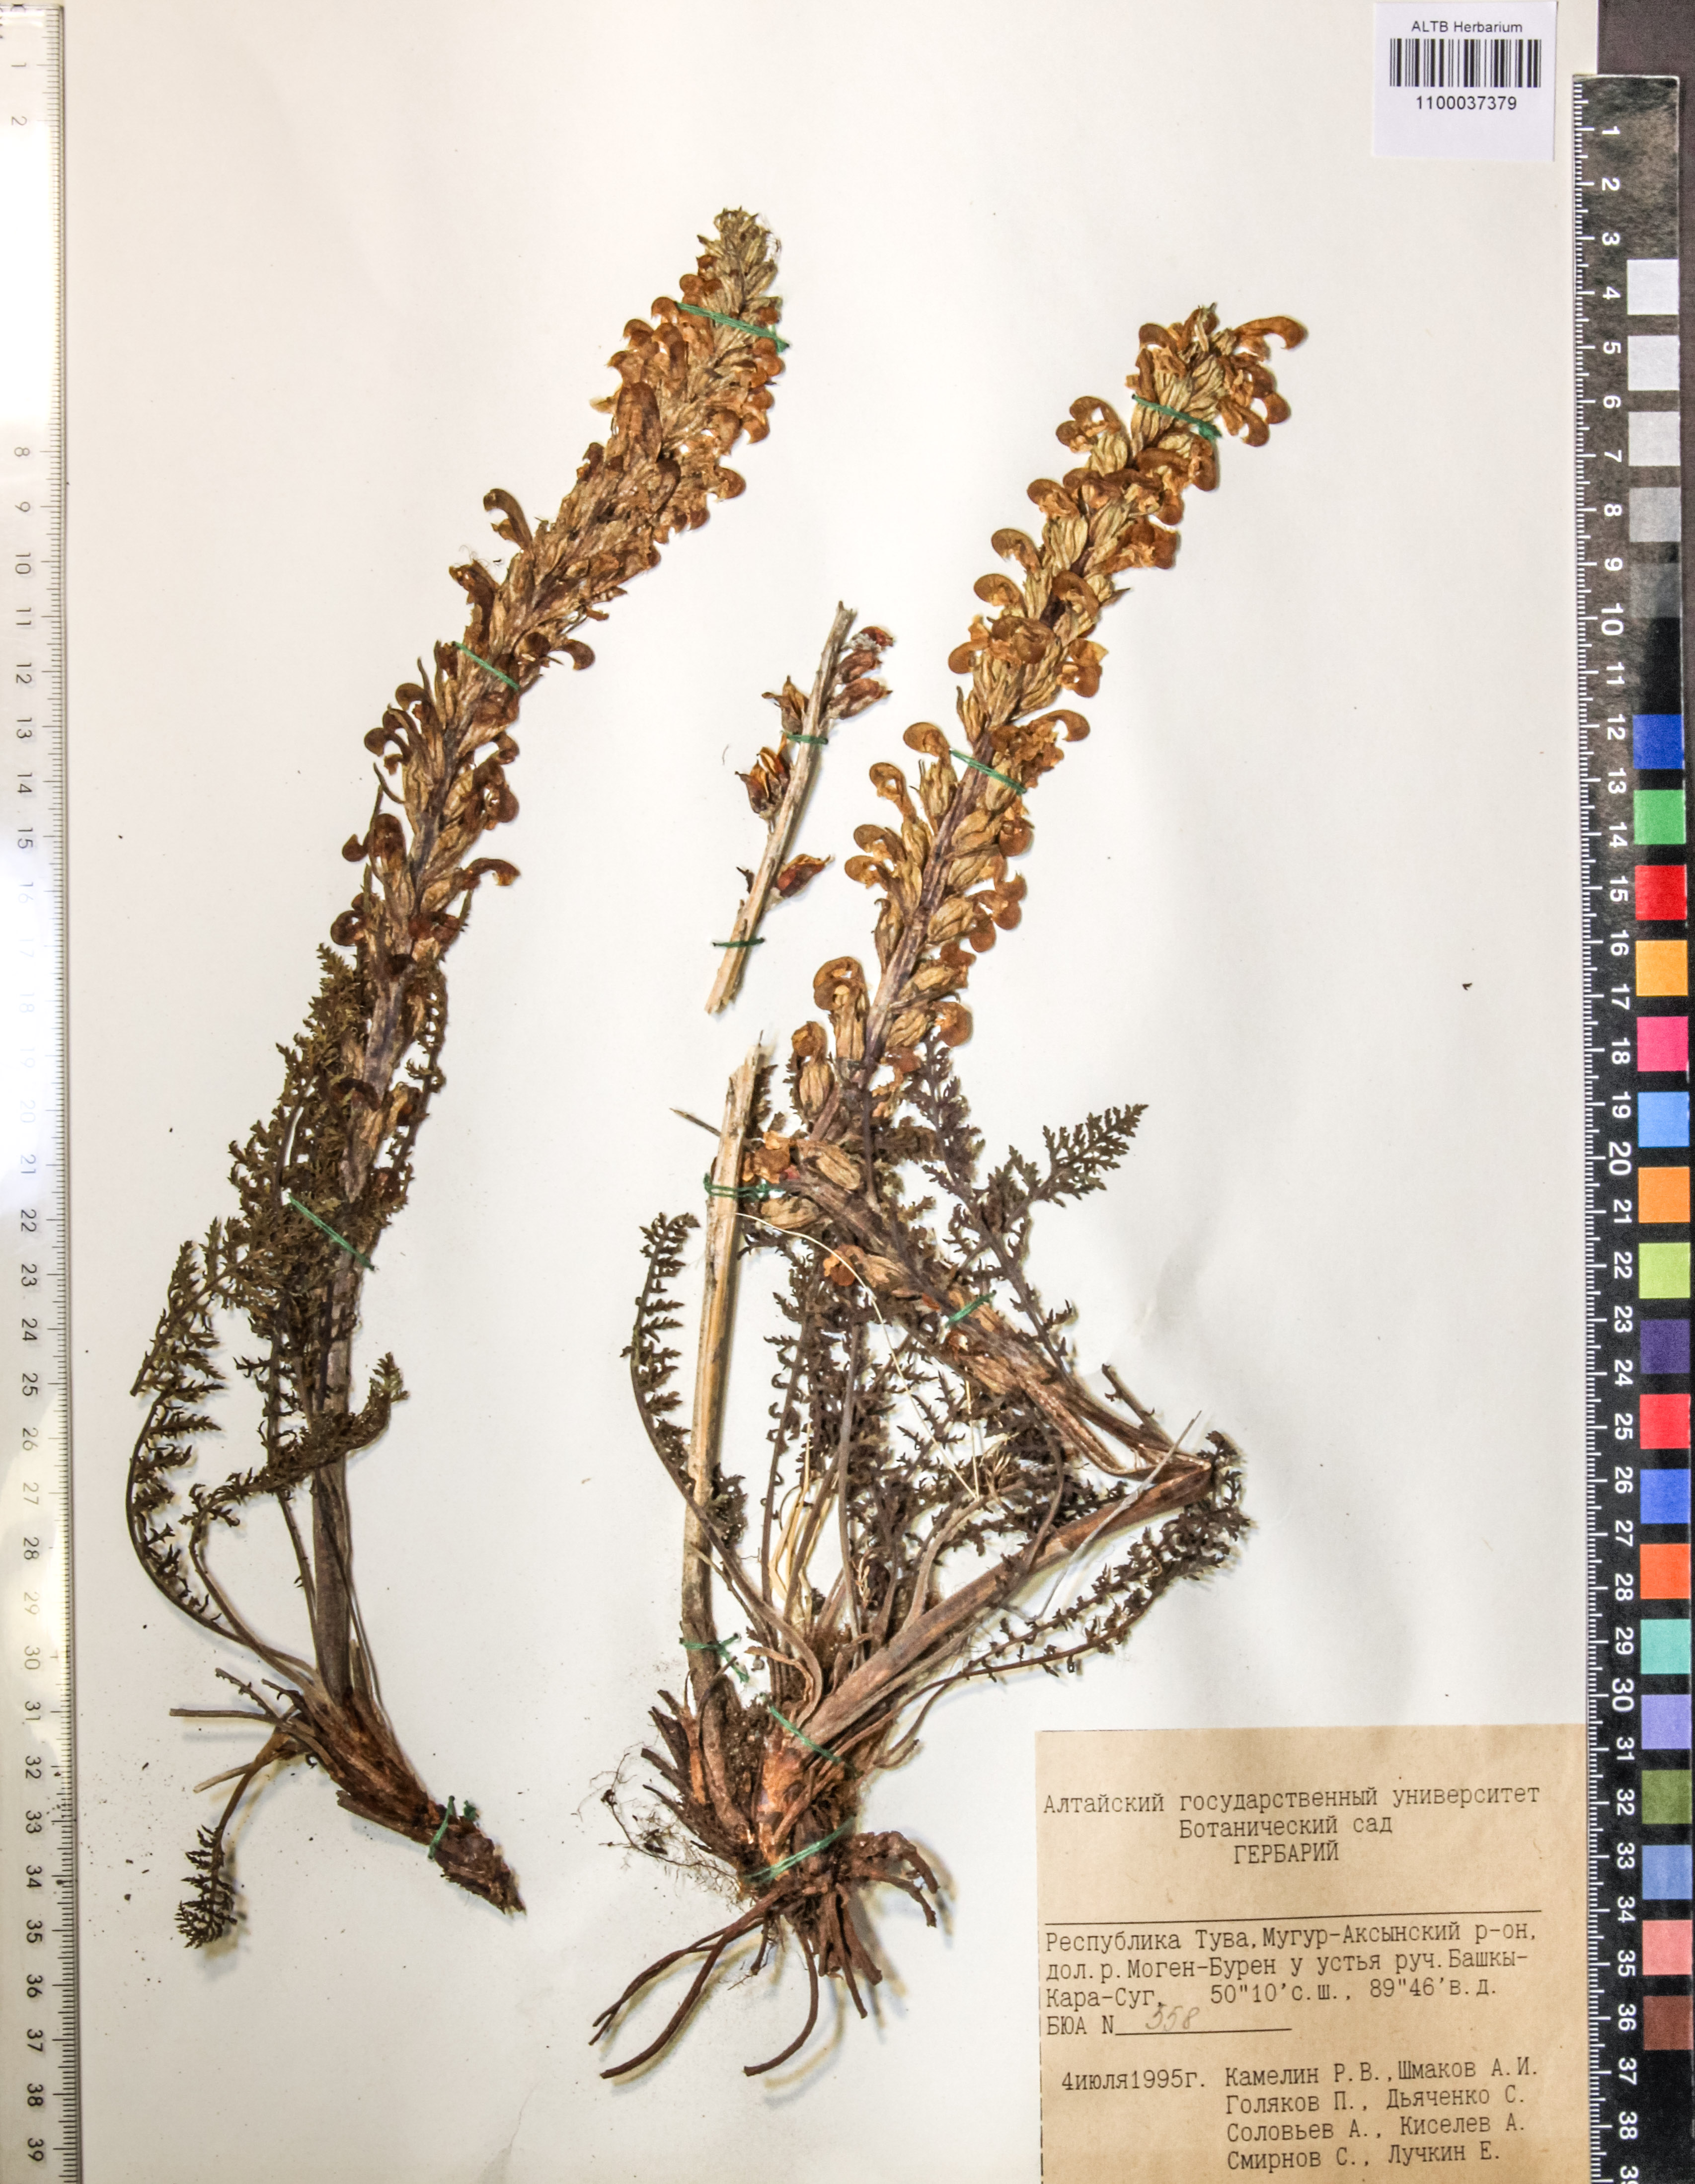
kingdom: Plantae
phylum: Tracheophyta
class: Magnoliopsida
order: Lamiales
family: Orobanchaceae
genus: Pedicularis
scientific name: Pedicularis achilleifolia
